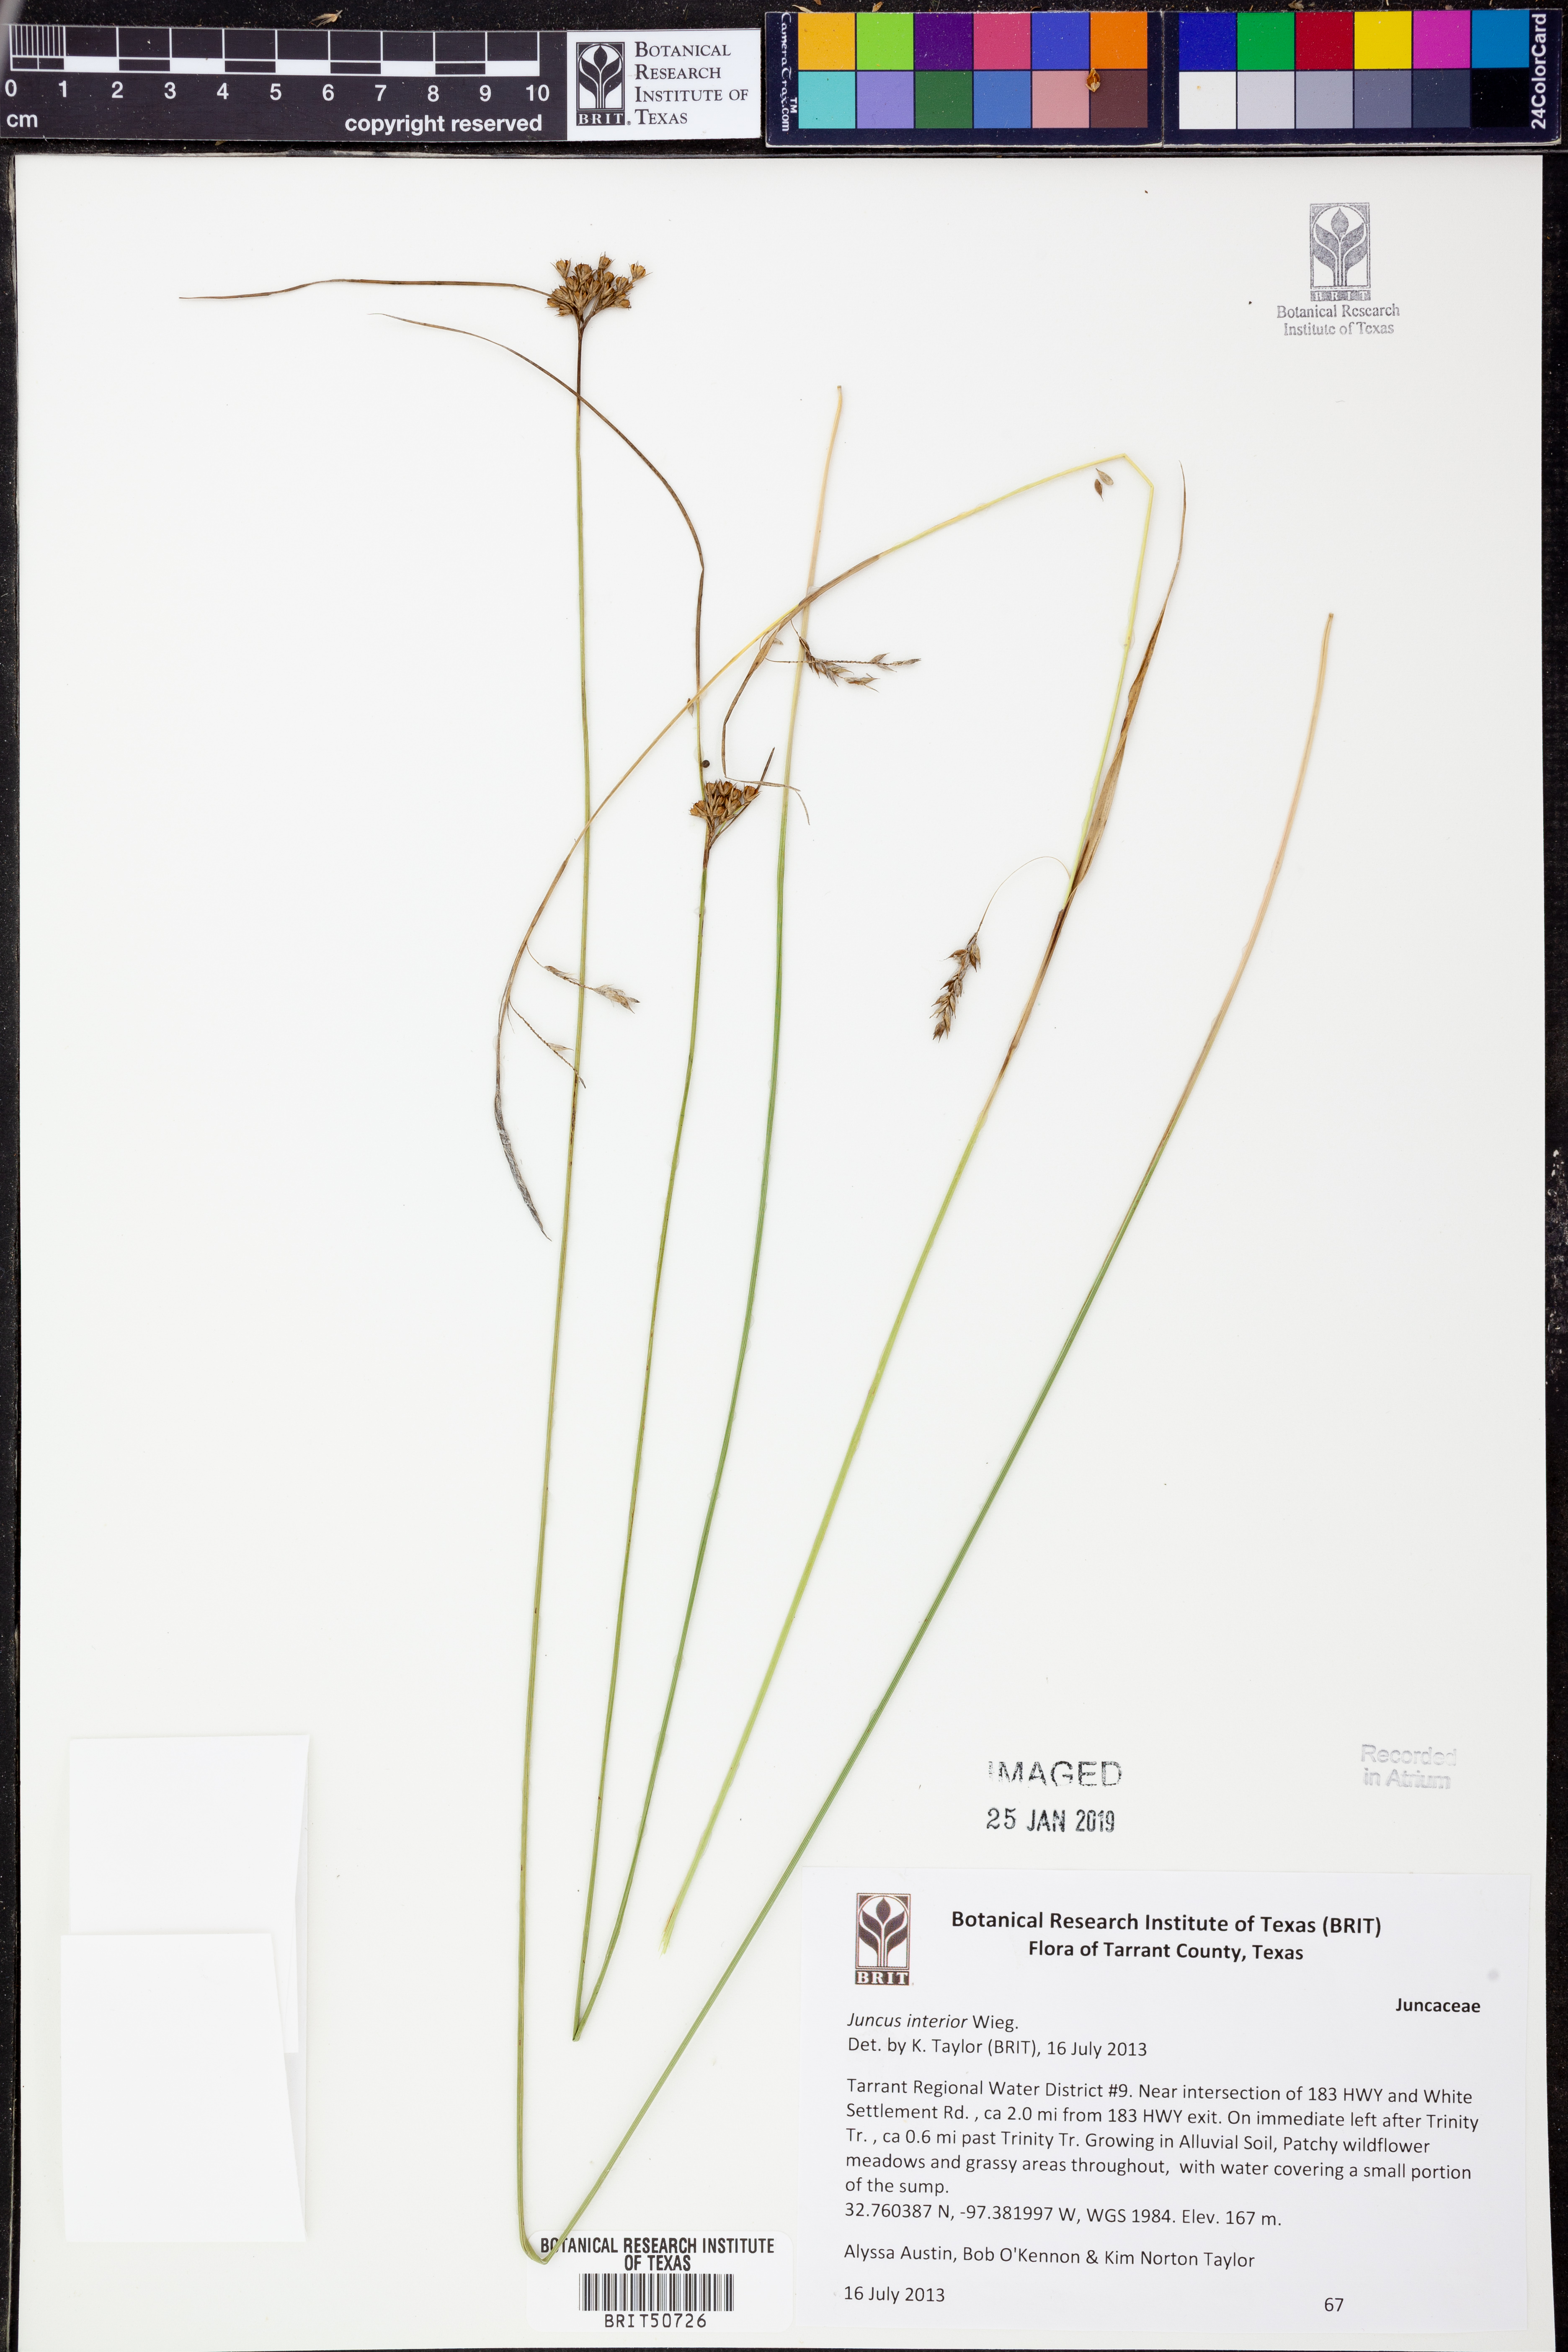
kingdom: Plantae
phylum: Tracheophyta
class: Liliopsida
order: Poales
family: Juncaceae
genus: Juncus
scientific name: Juncus interior
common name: Interior rush
